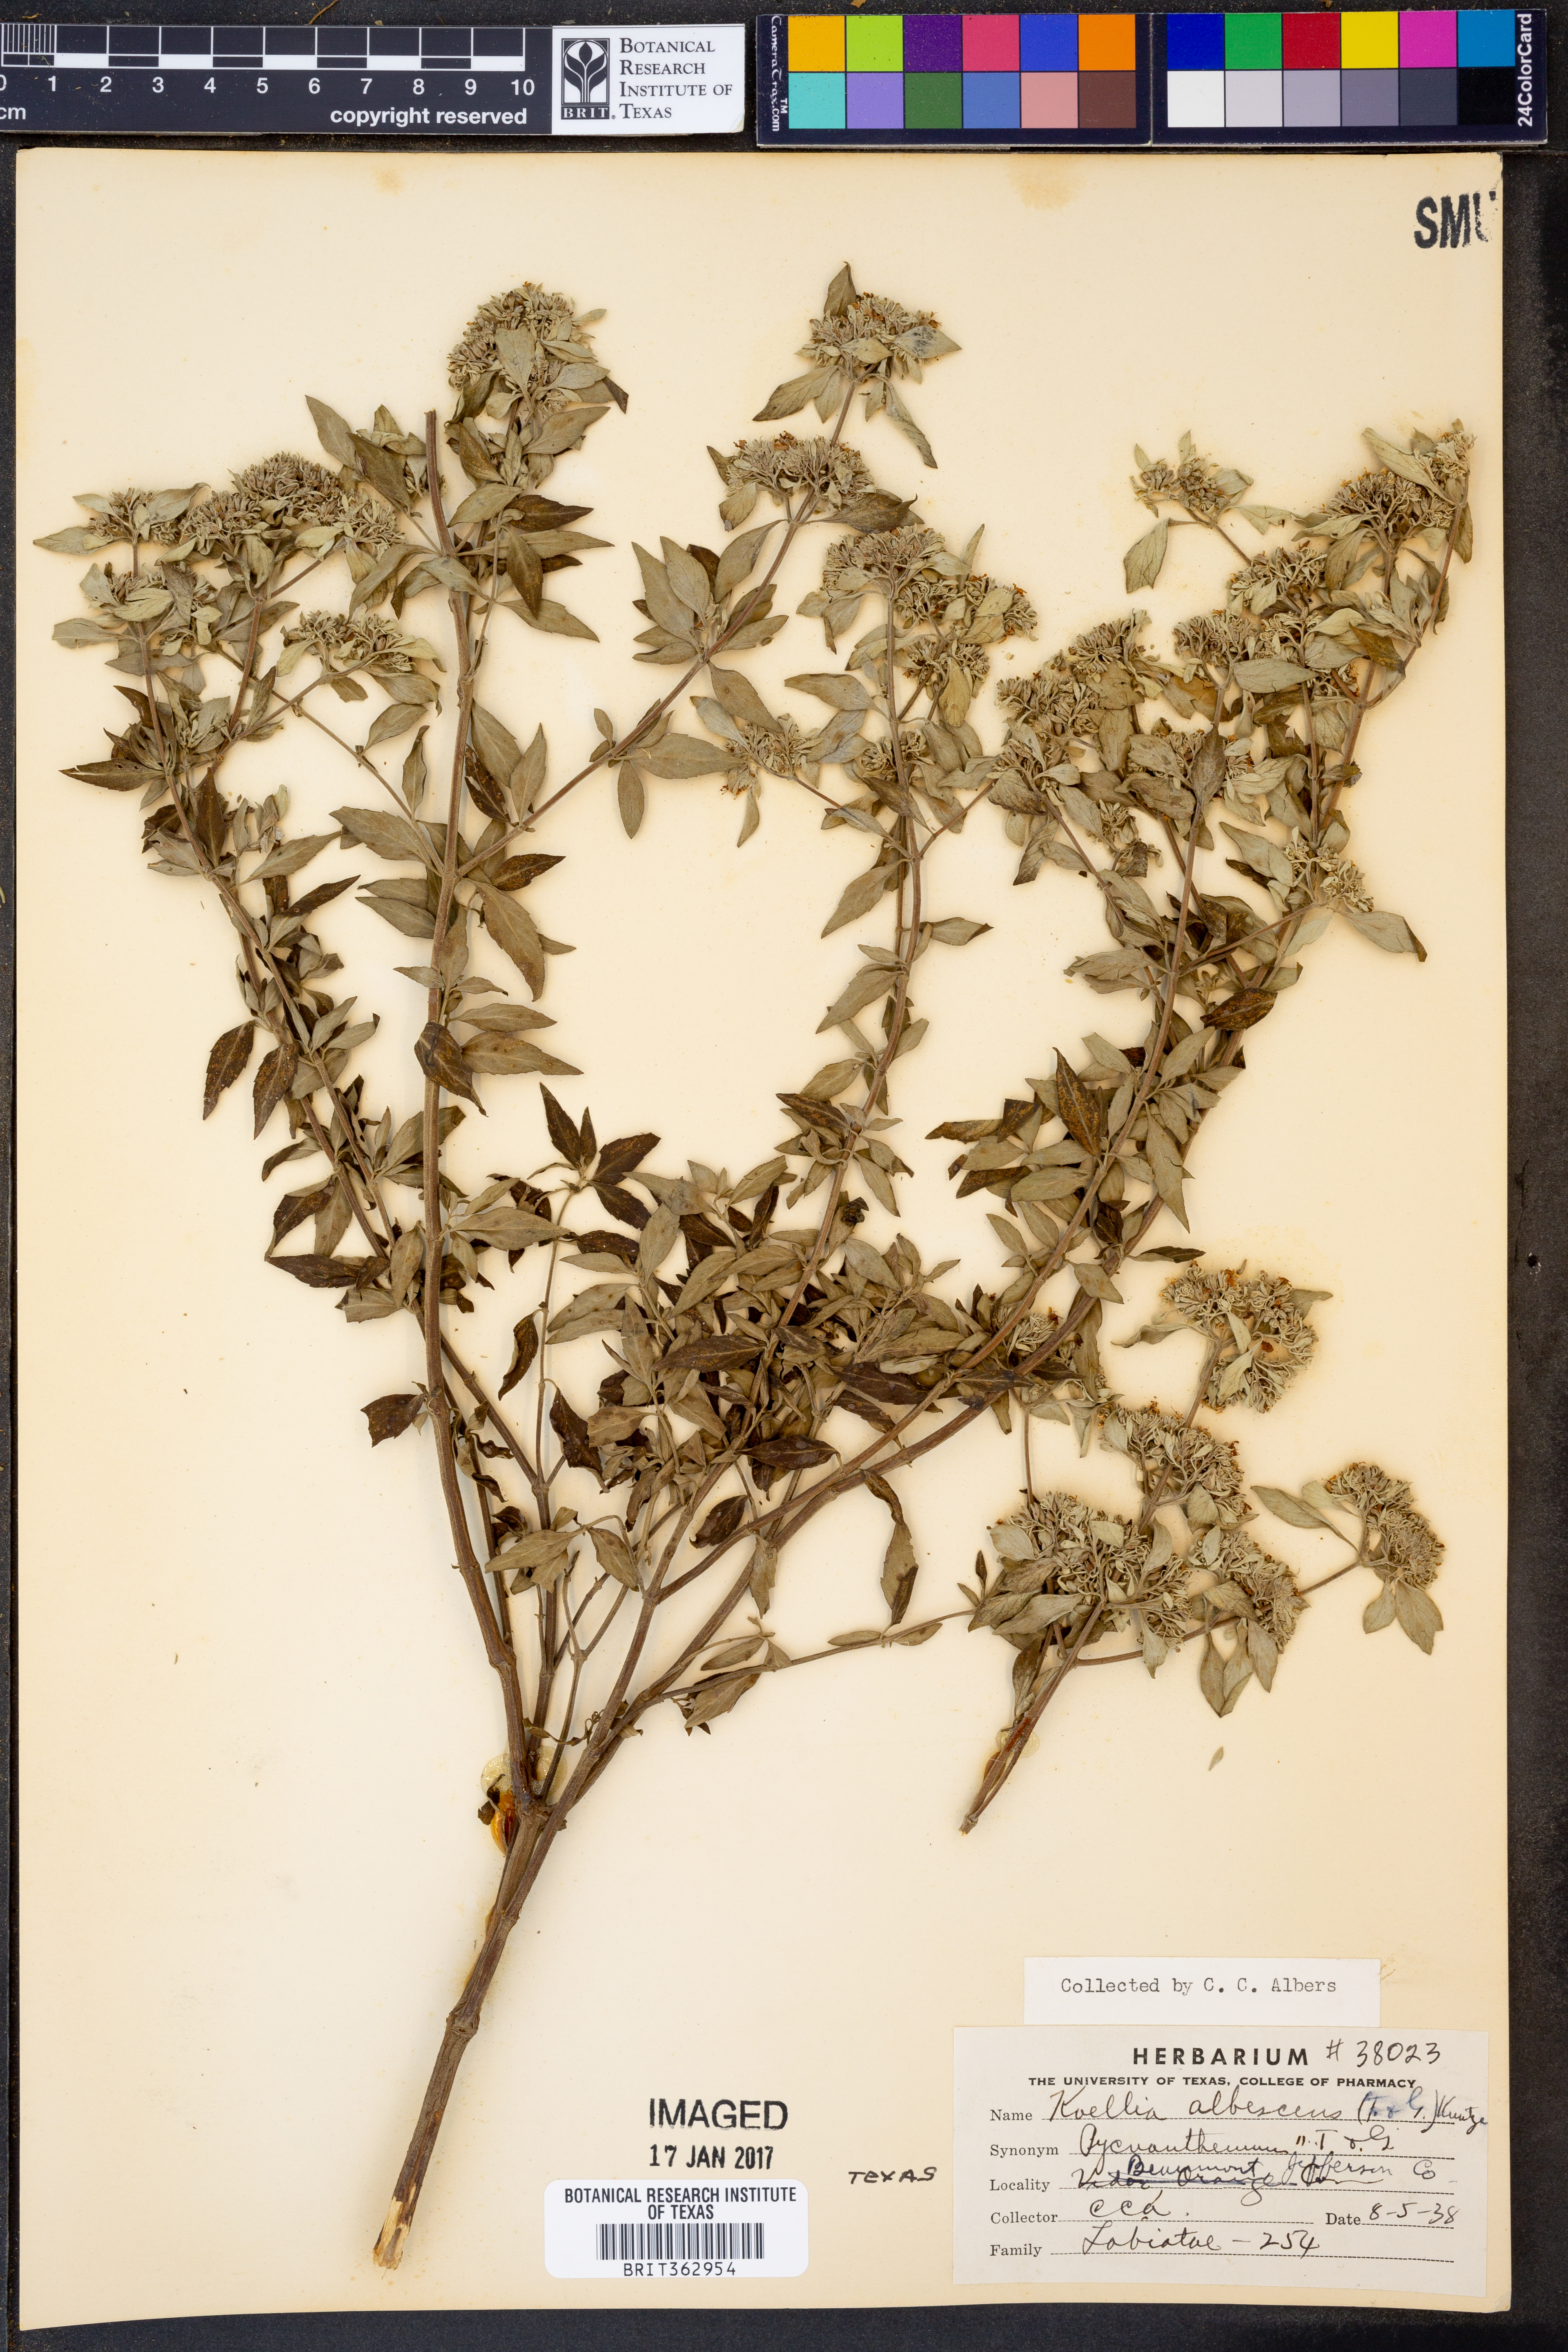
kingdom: Plantae
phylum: Tracheophyta
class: Magnoliopsida
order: Lamiales
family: Lamiaceae
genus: Pycnanthemum
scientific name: Pycnanthemum albescens
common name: White-leaf mountain-mint
